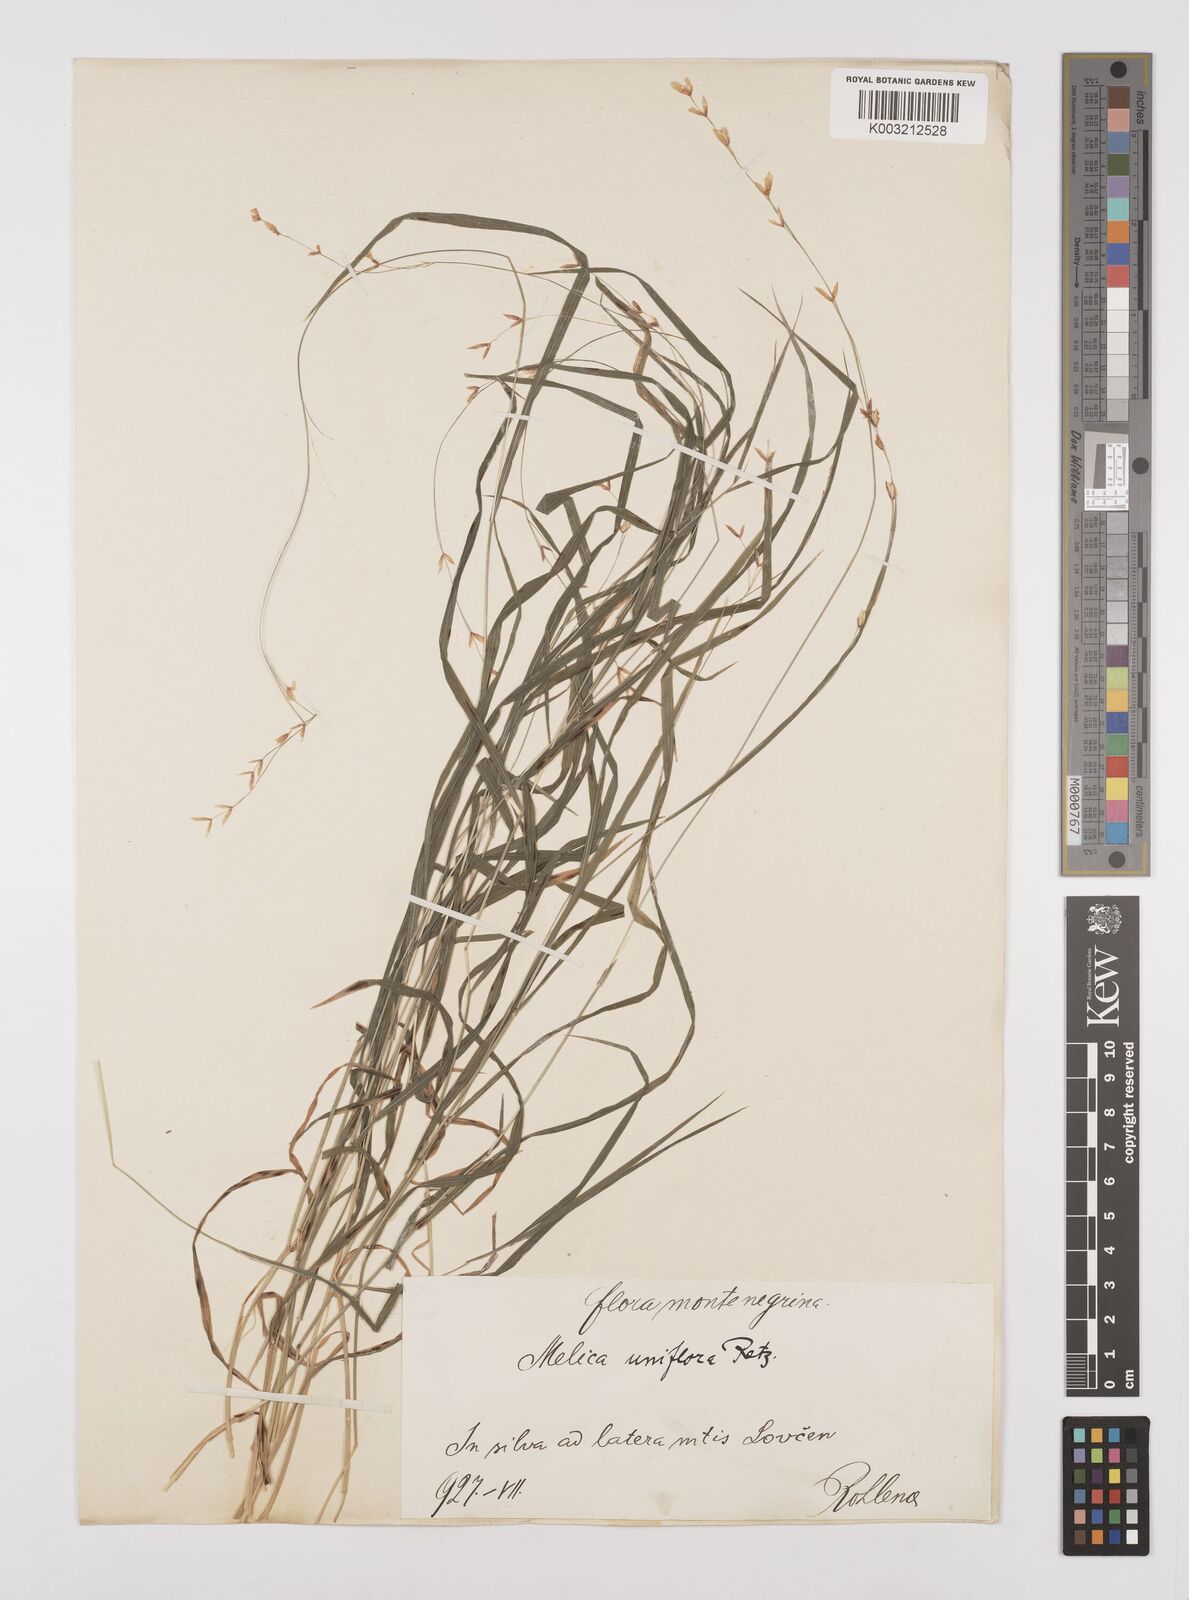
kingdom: Plantae
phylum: Tracheophyta
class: Liliopsida
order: Poales
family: Poaceae
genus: Melica
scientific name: Melica uniflora
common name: Wood melick
